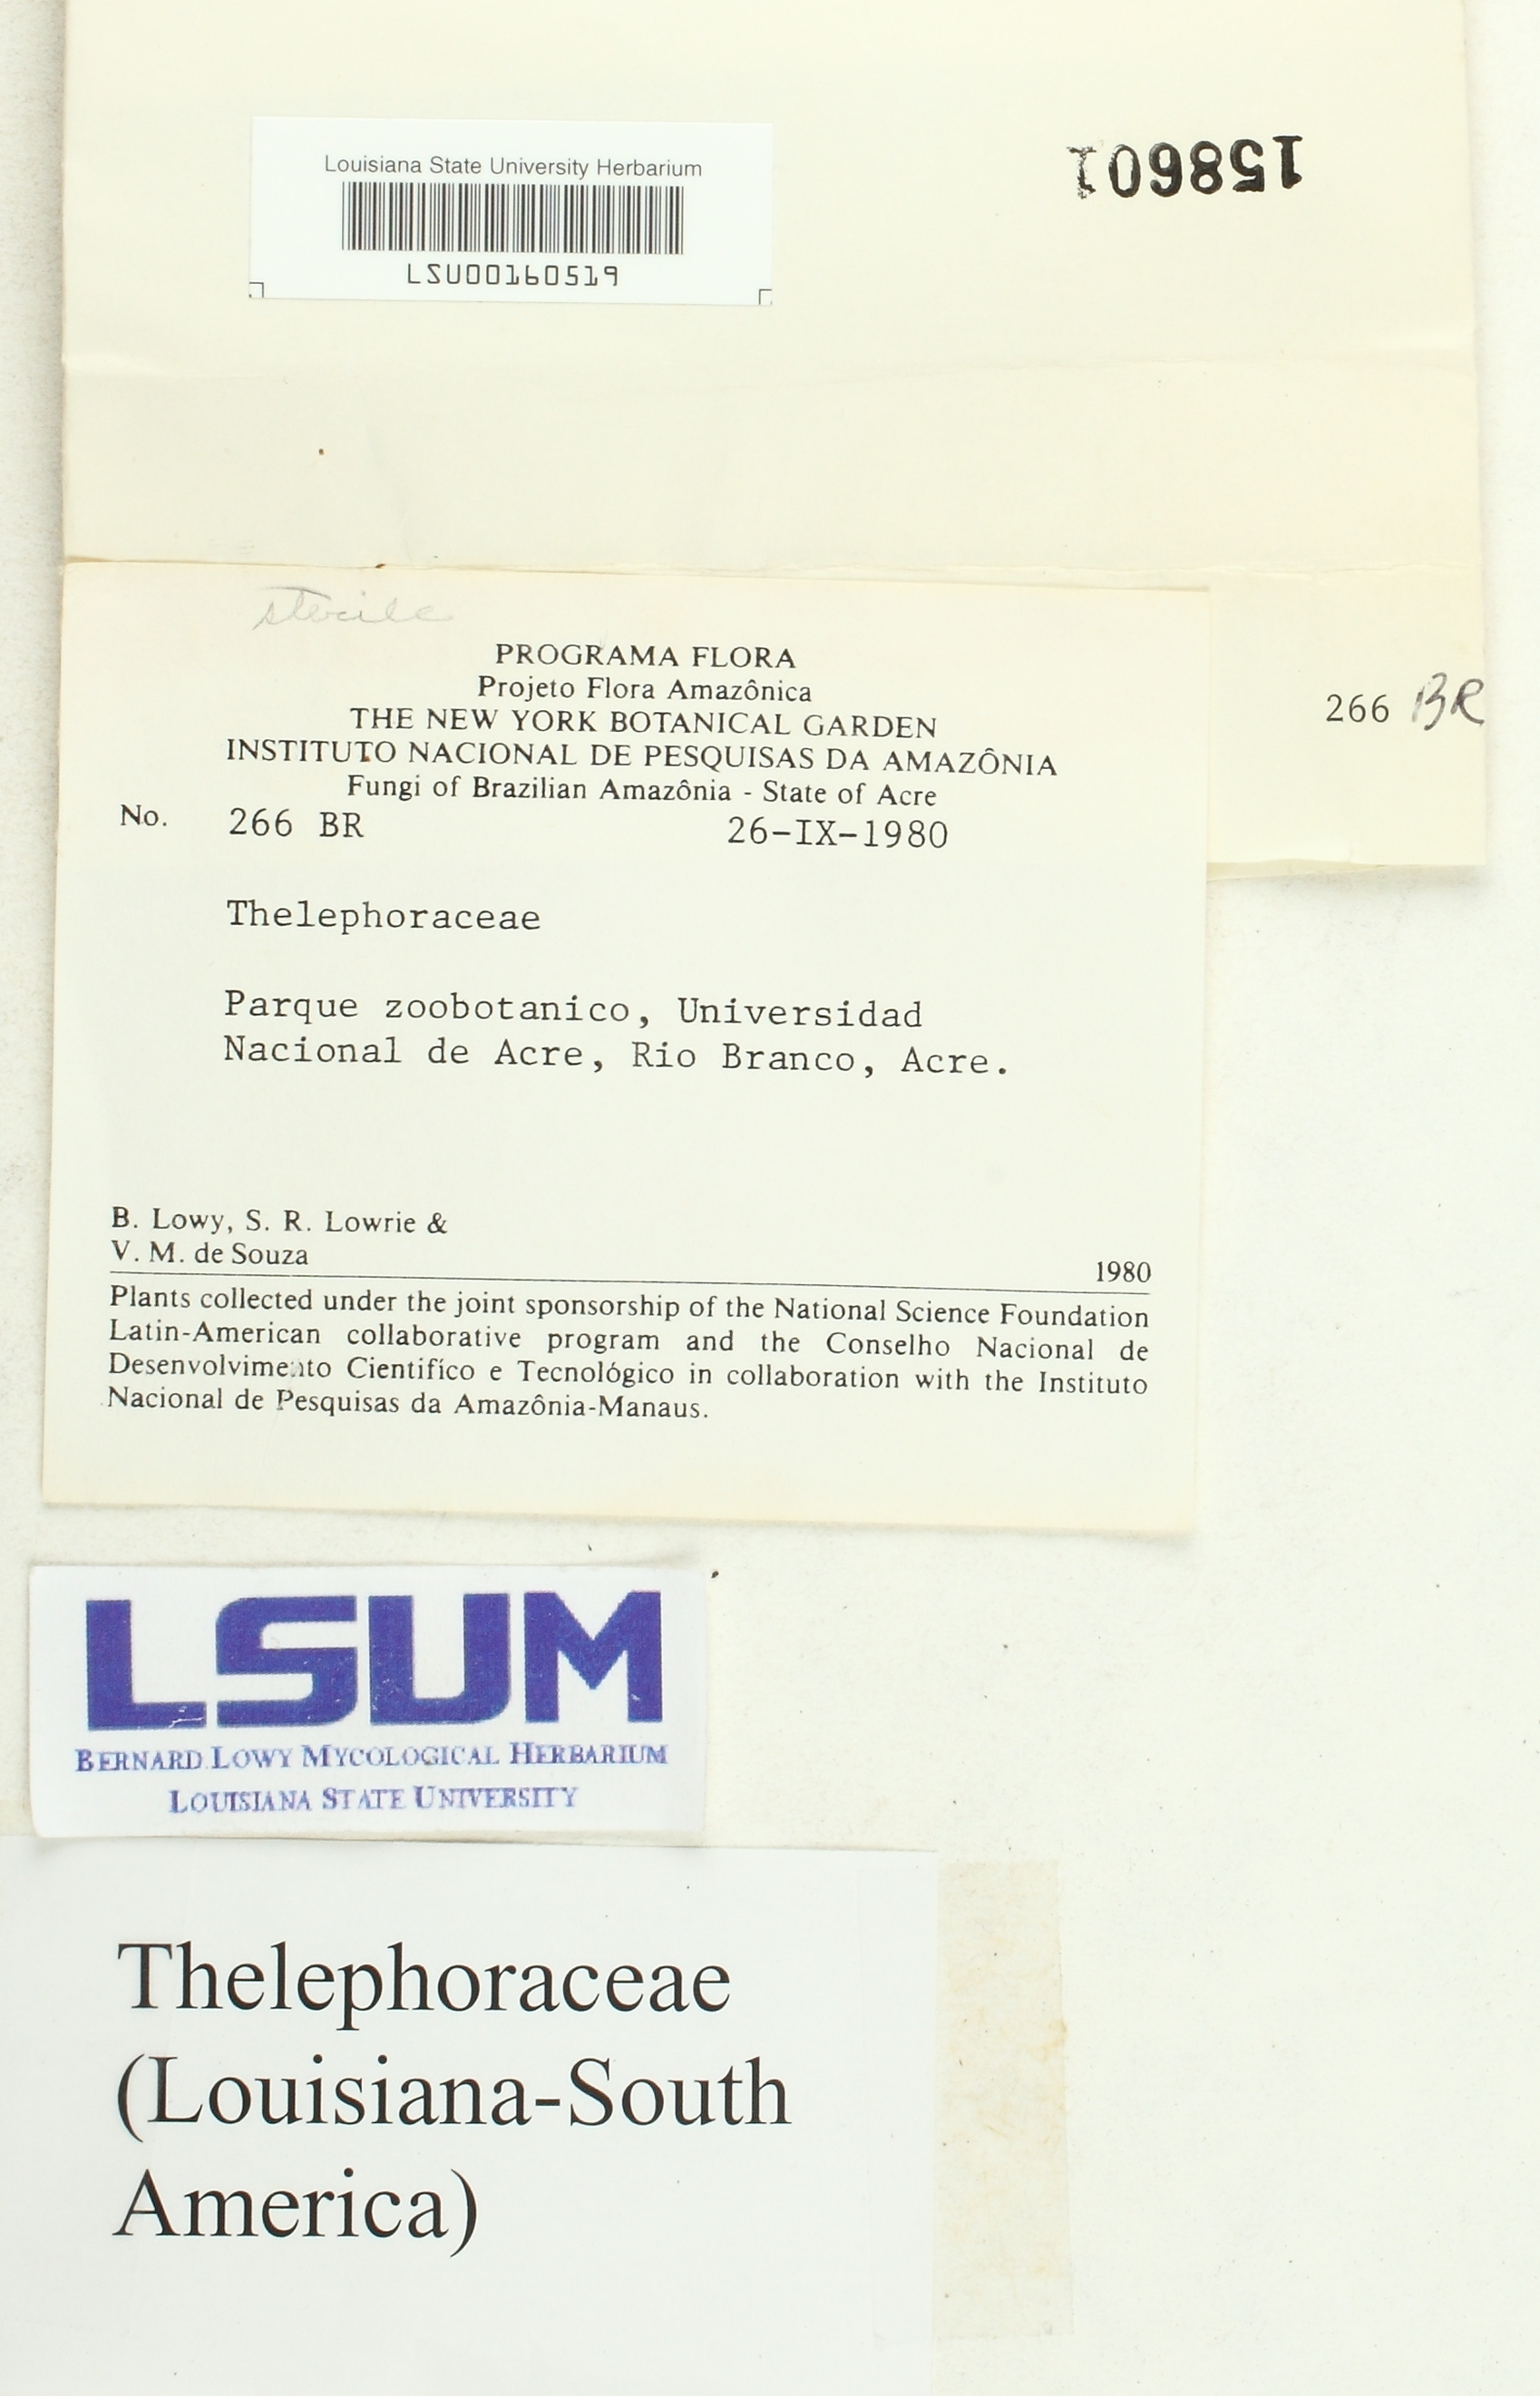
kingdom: Fungi
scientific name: Fungi
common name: Fungi
